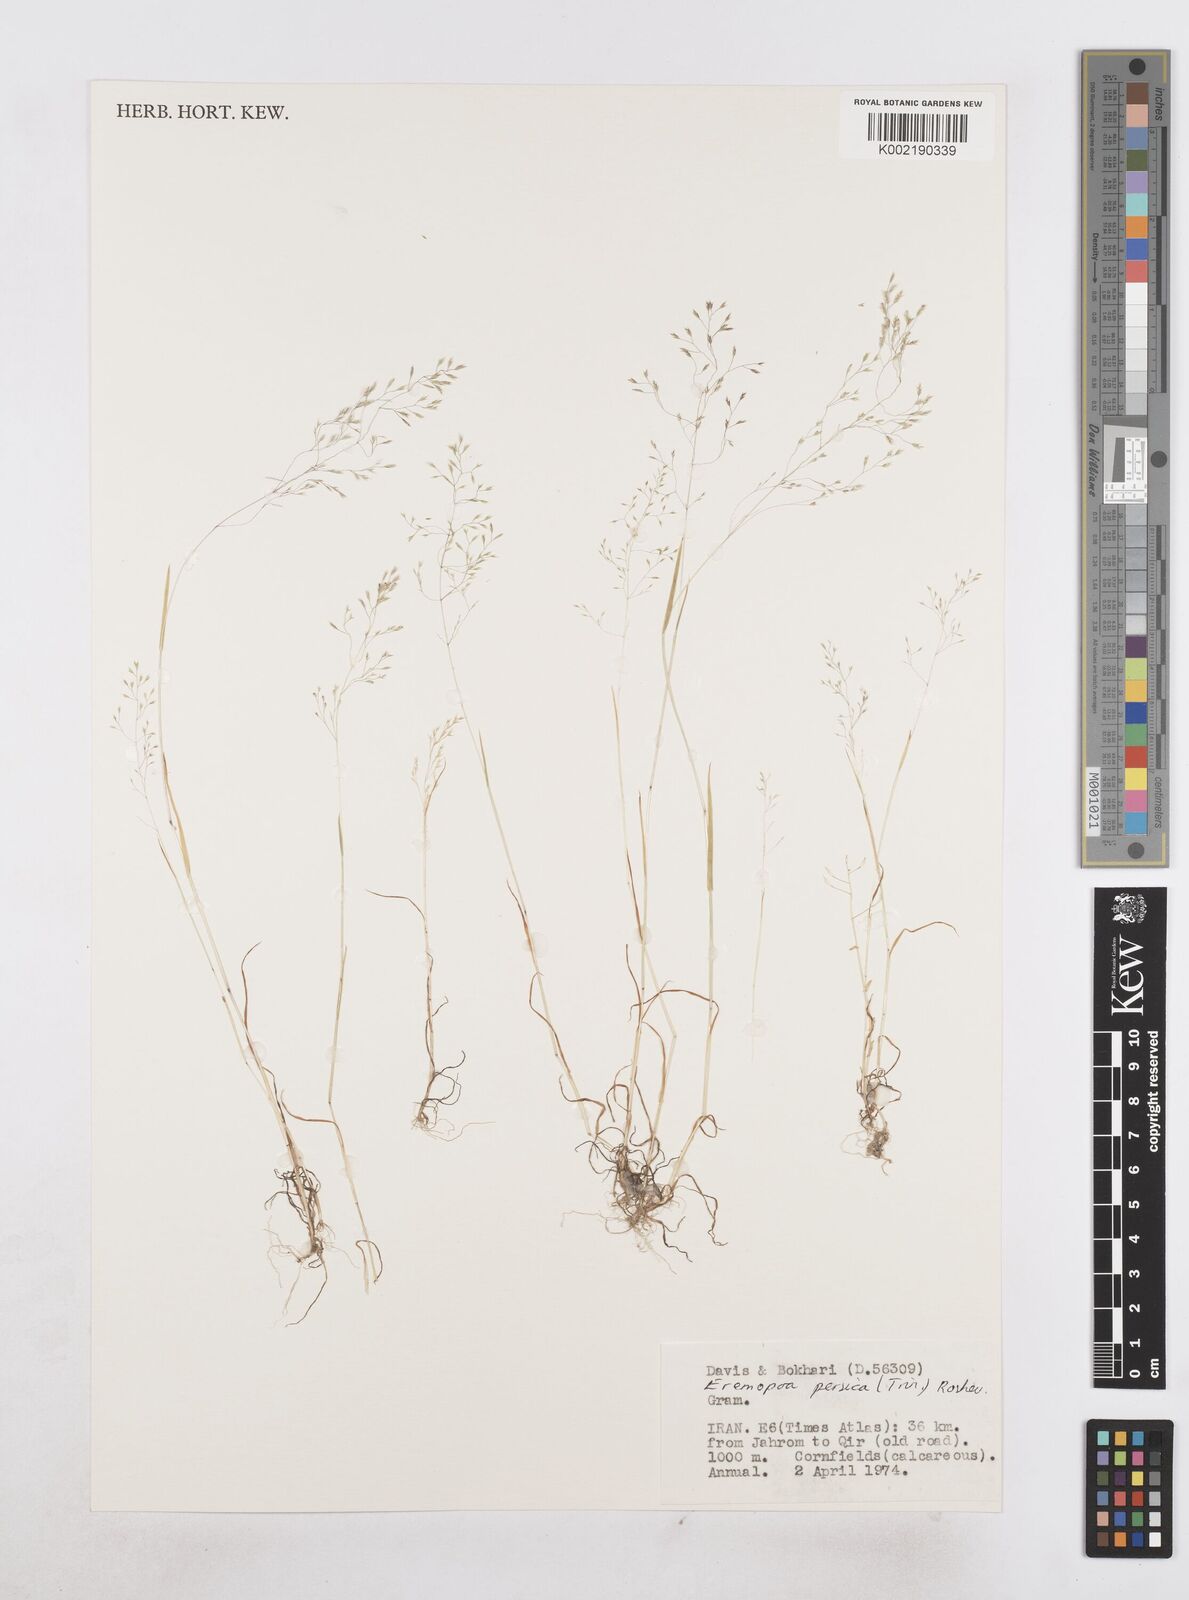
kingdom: Plantae
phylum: Tracheophyta
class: Liliopsida
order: Poales
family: Poaceae
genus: Poa
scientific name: Poa persica
